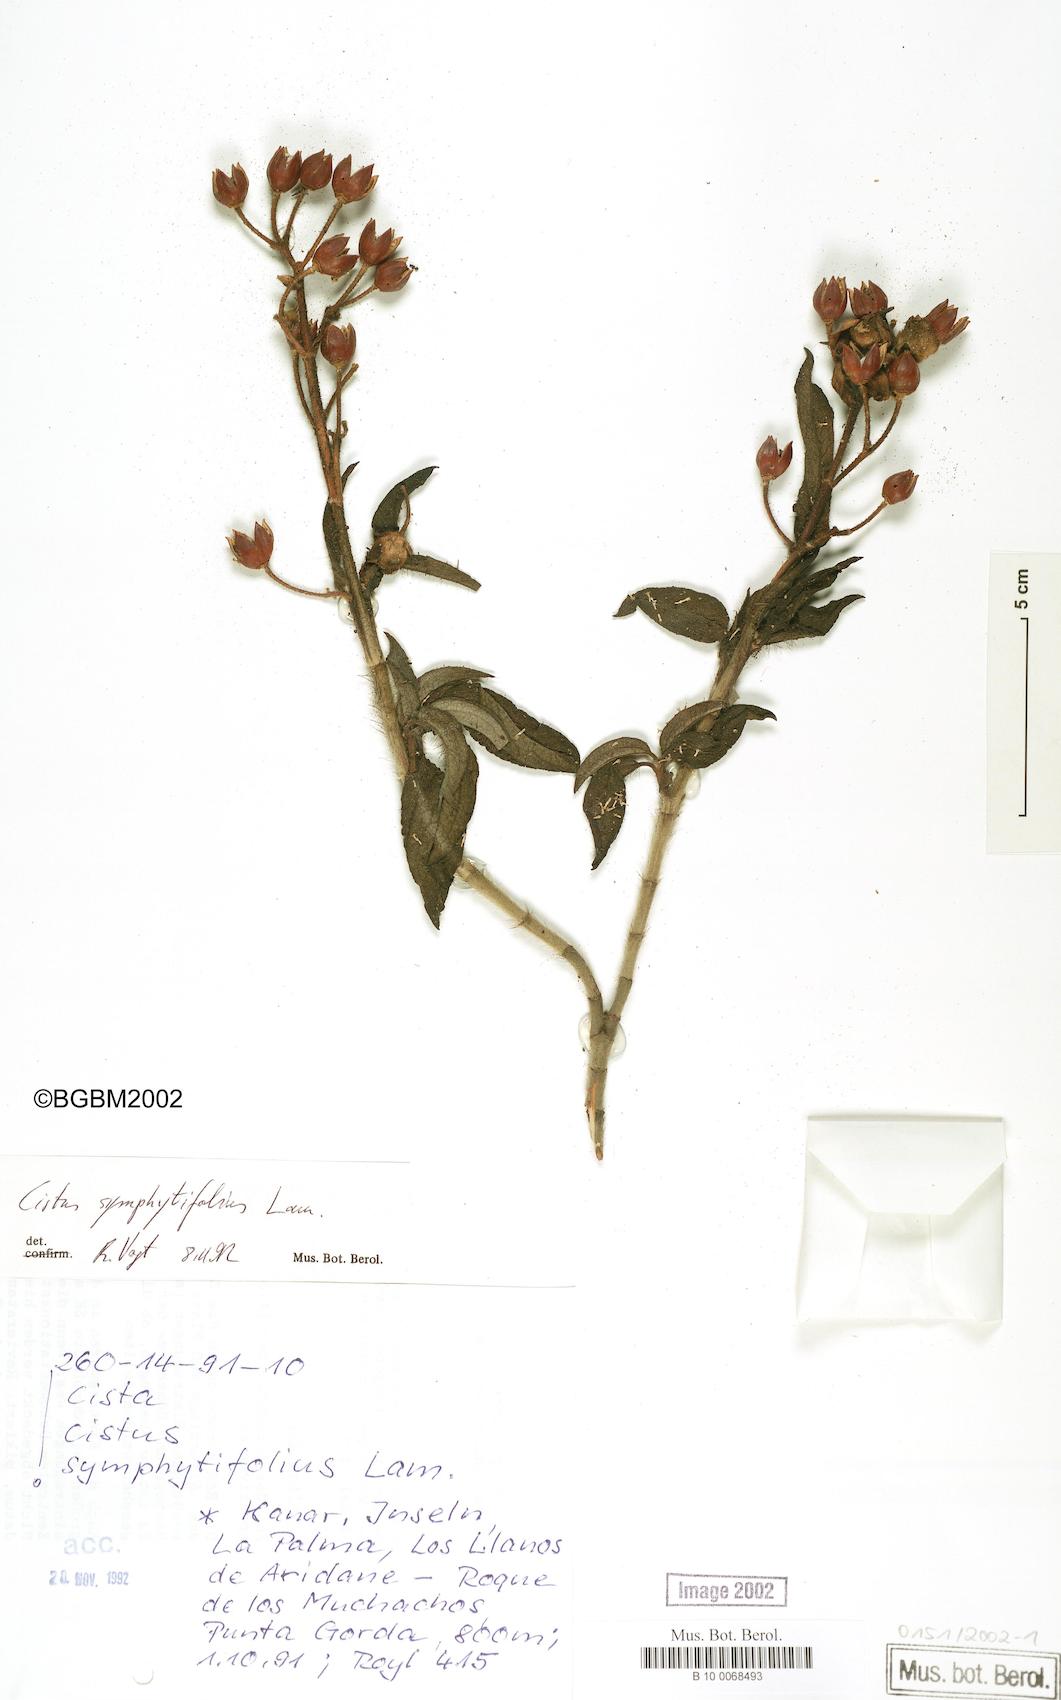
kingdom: Plantae
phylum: Tracheophyta
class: Magnoliopsida
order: Malvales
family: Cistaceae
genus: Cistus
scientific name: Cistus symphytifolius
